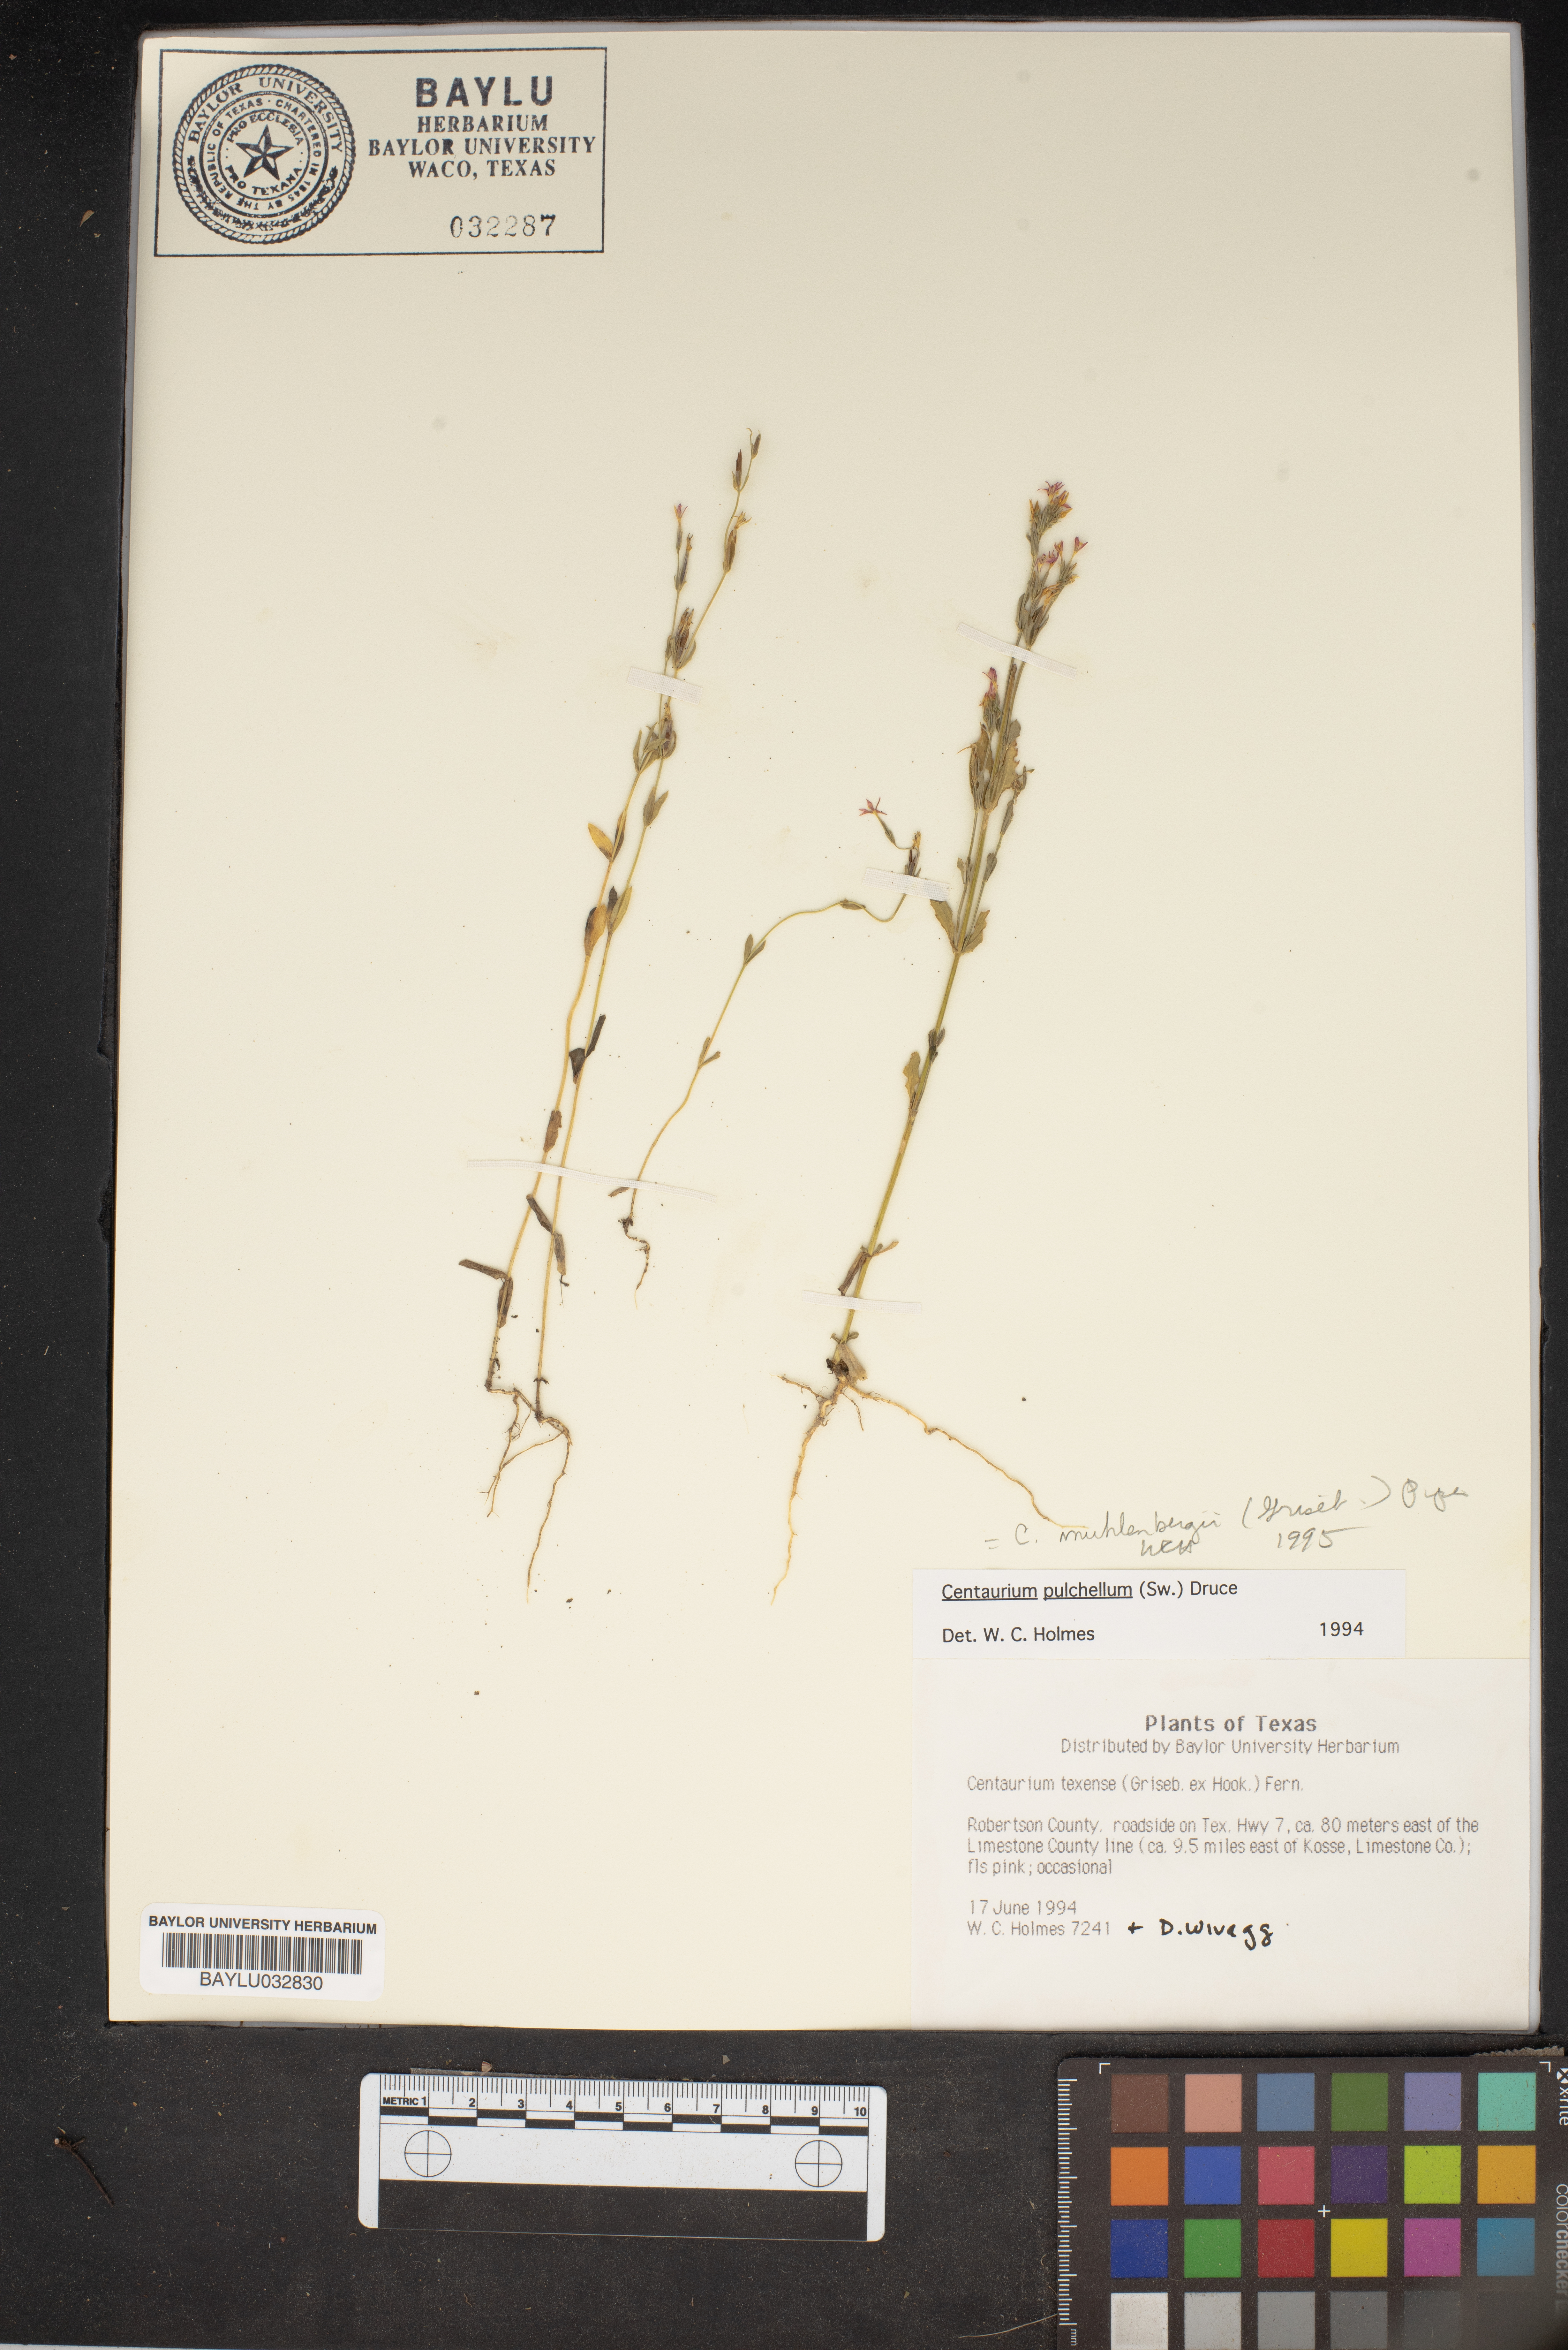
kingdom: Plantae
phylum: Tracheophyta
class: Magnoliopsida
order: Gentianales
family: Gentianaceae
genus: Centaurium
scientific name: Centaurium pulchellum
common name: Lesser centaury
